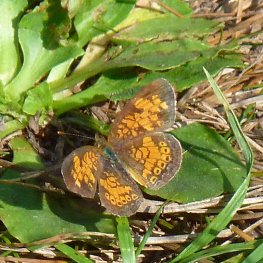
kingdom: Animalia
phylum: Arthropoda
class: Insecta
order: Lepidoptera
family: Nymphalidae
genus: Phyciodes
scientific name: Phyciodes tharos
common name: Northern Crescent
